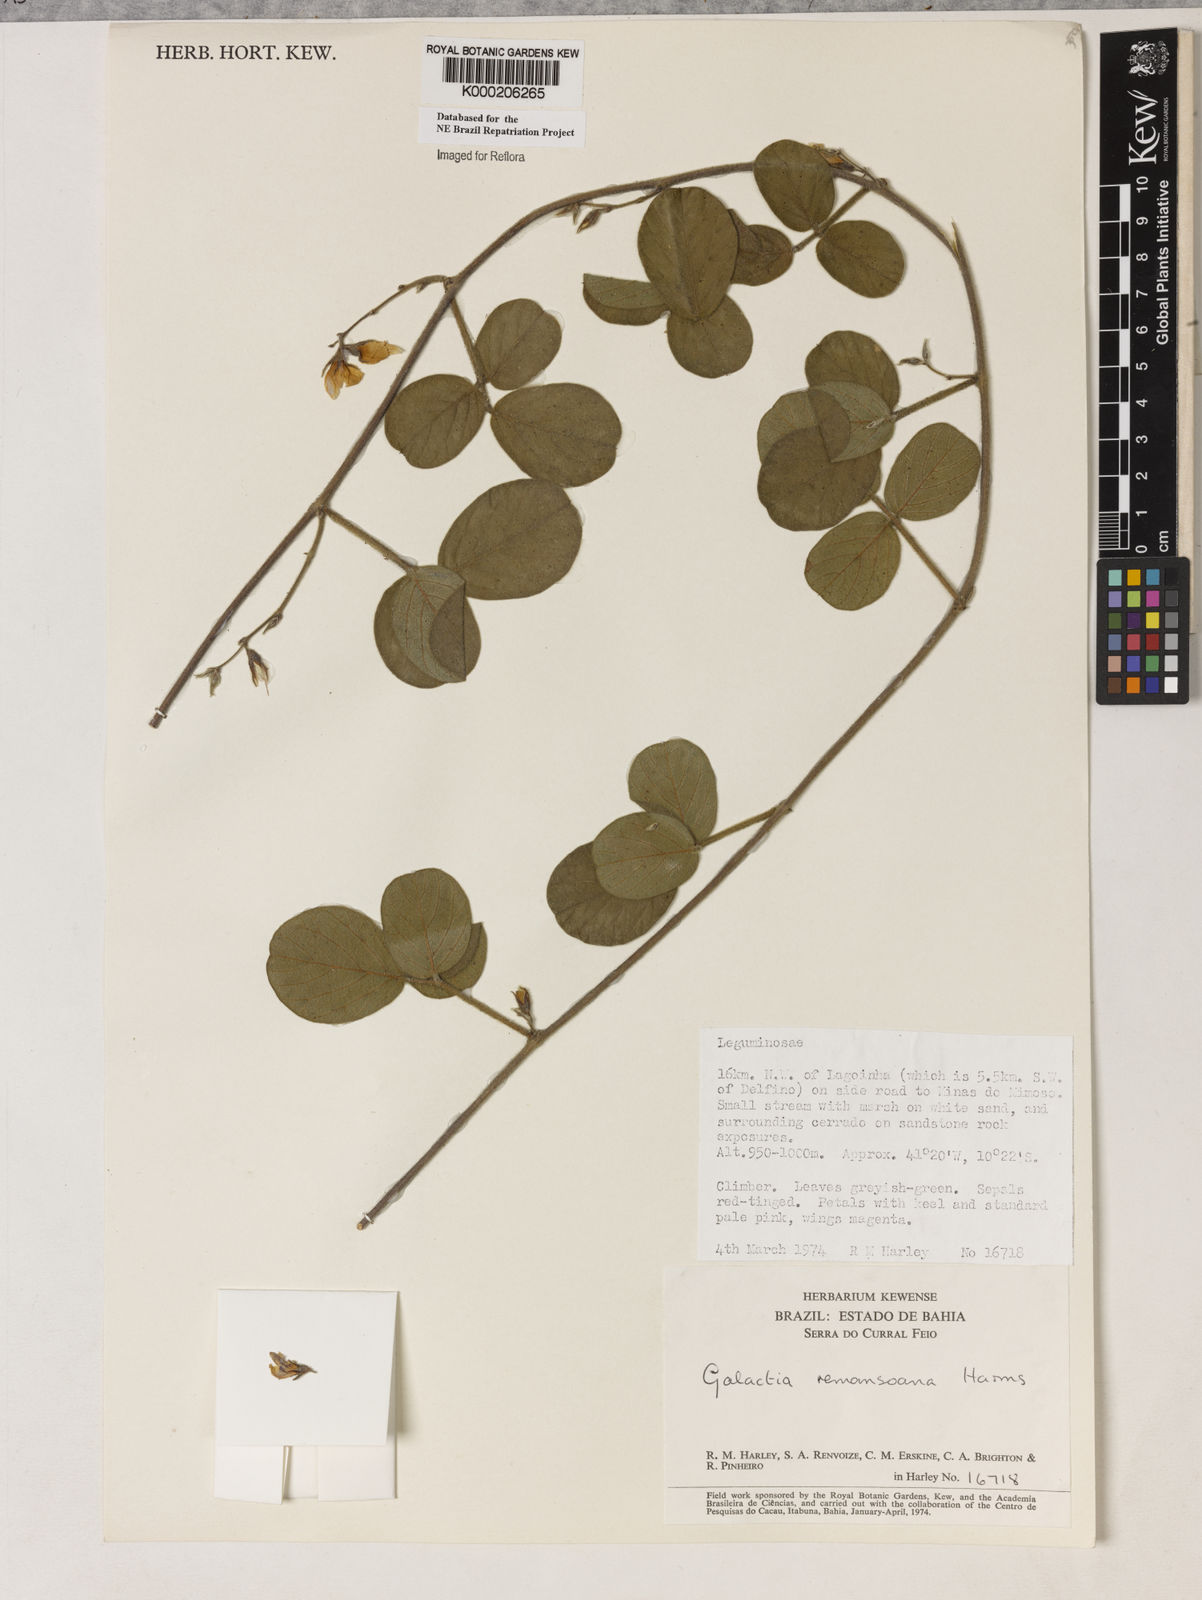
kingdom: Plantae
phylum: Tracheophyta
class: Magnoliopsida
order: Fabales
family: Fabaceae
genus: Galactia
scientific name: Galactia remansoana
